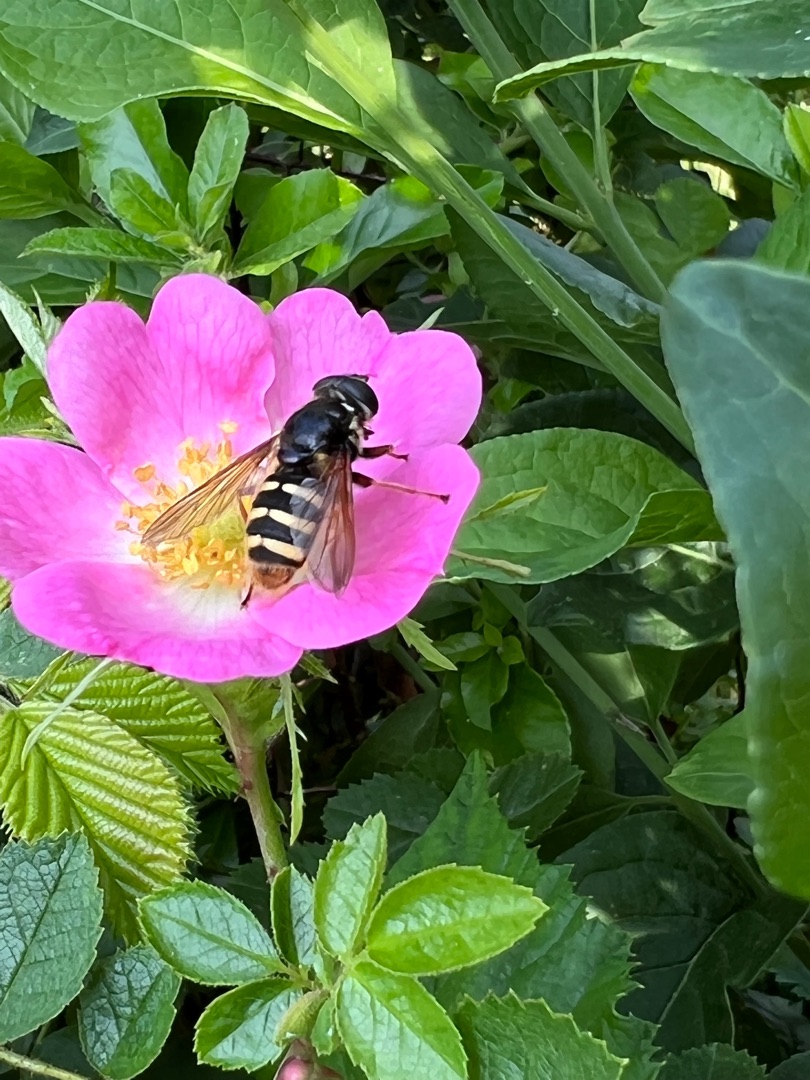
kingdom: Animalia
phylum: Arthropoda
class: Insecta
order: Diptera
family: Syrphidae
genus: Sericomyia
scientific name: Sericomyia silentis
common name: Tørve-silkesvirreflue
